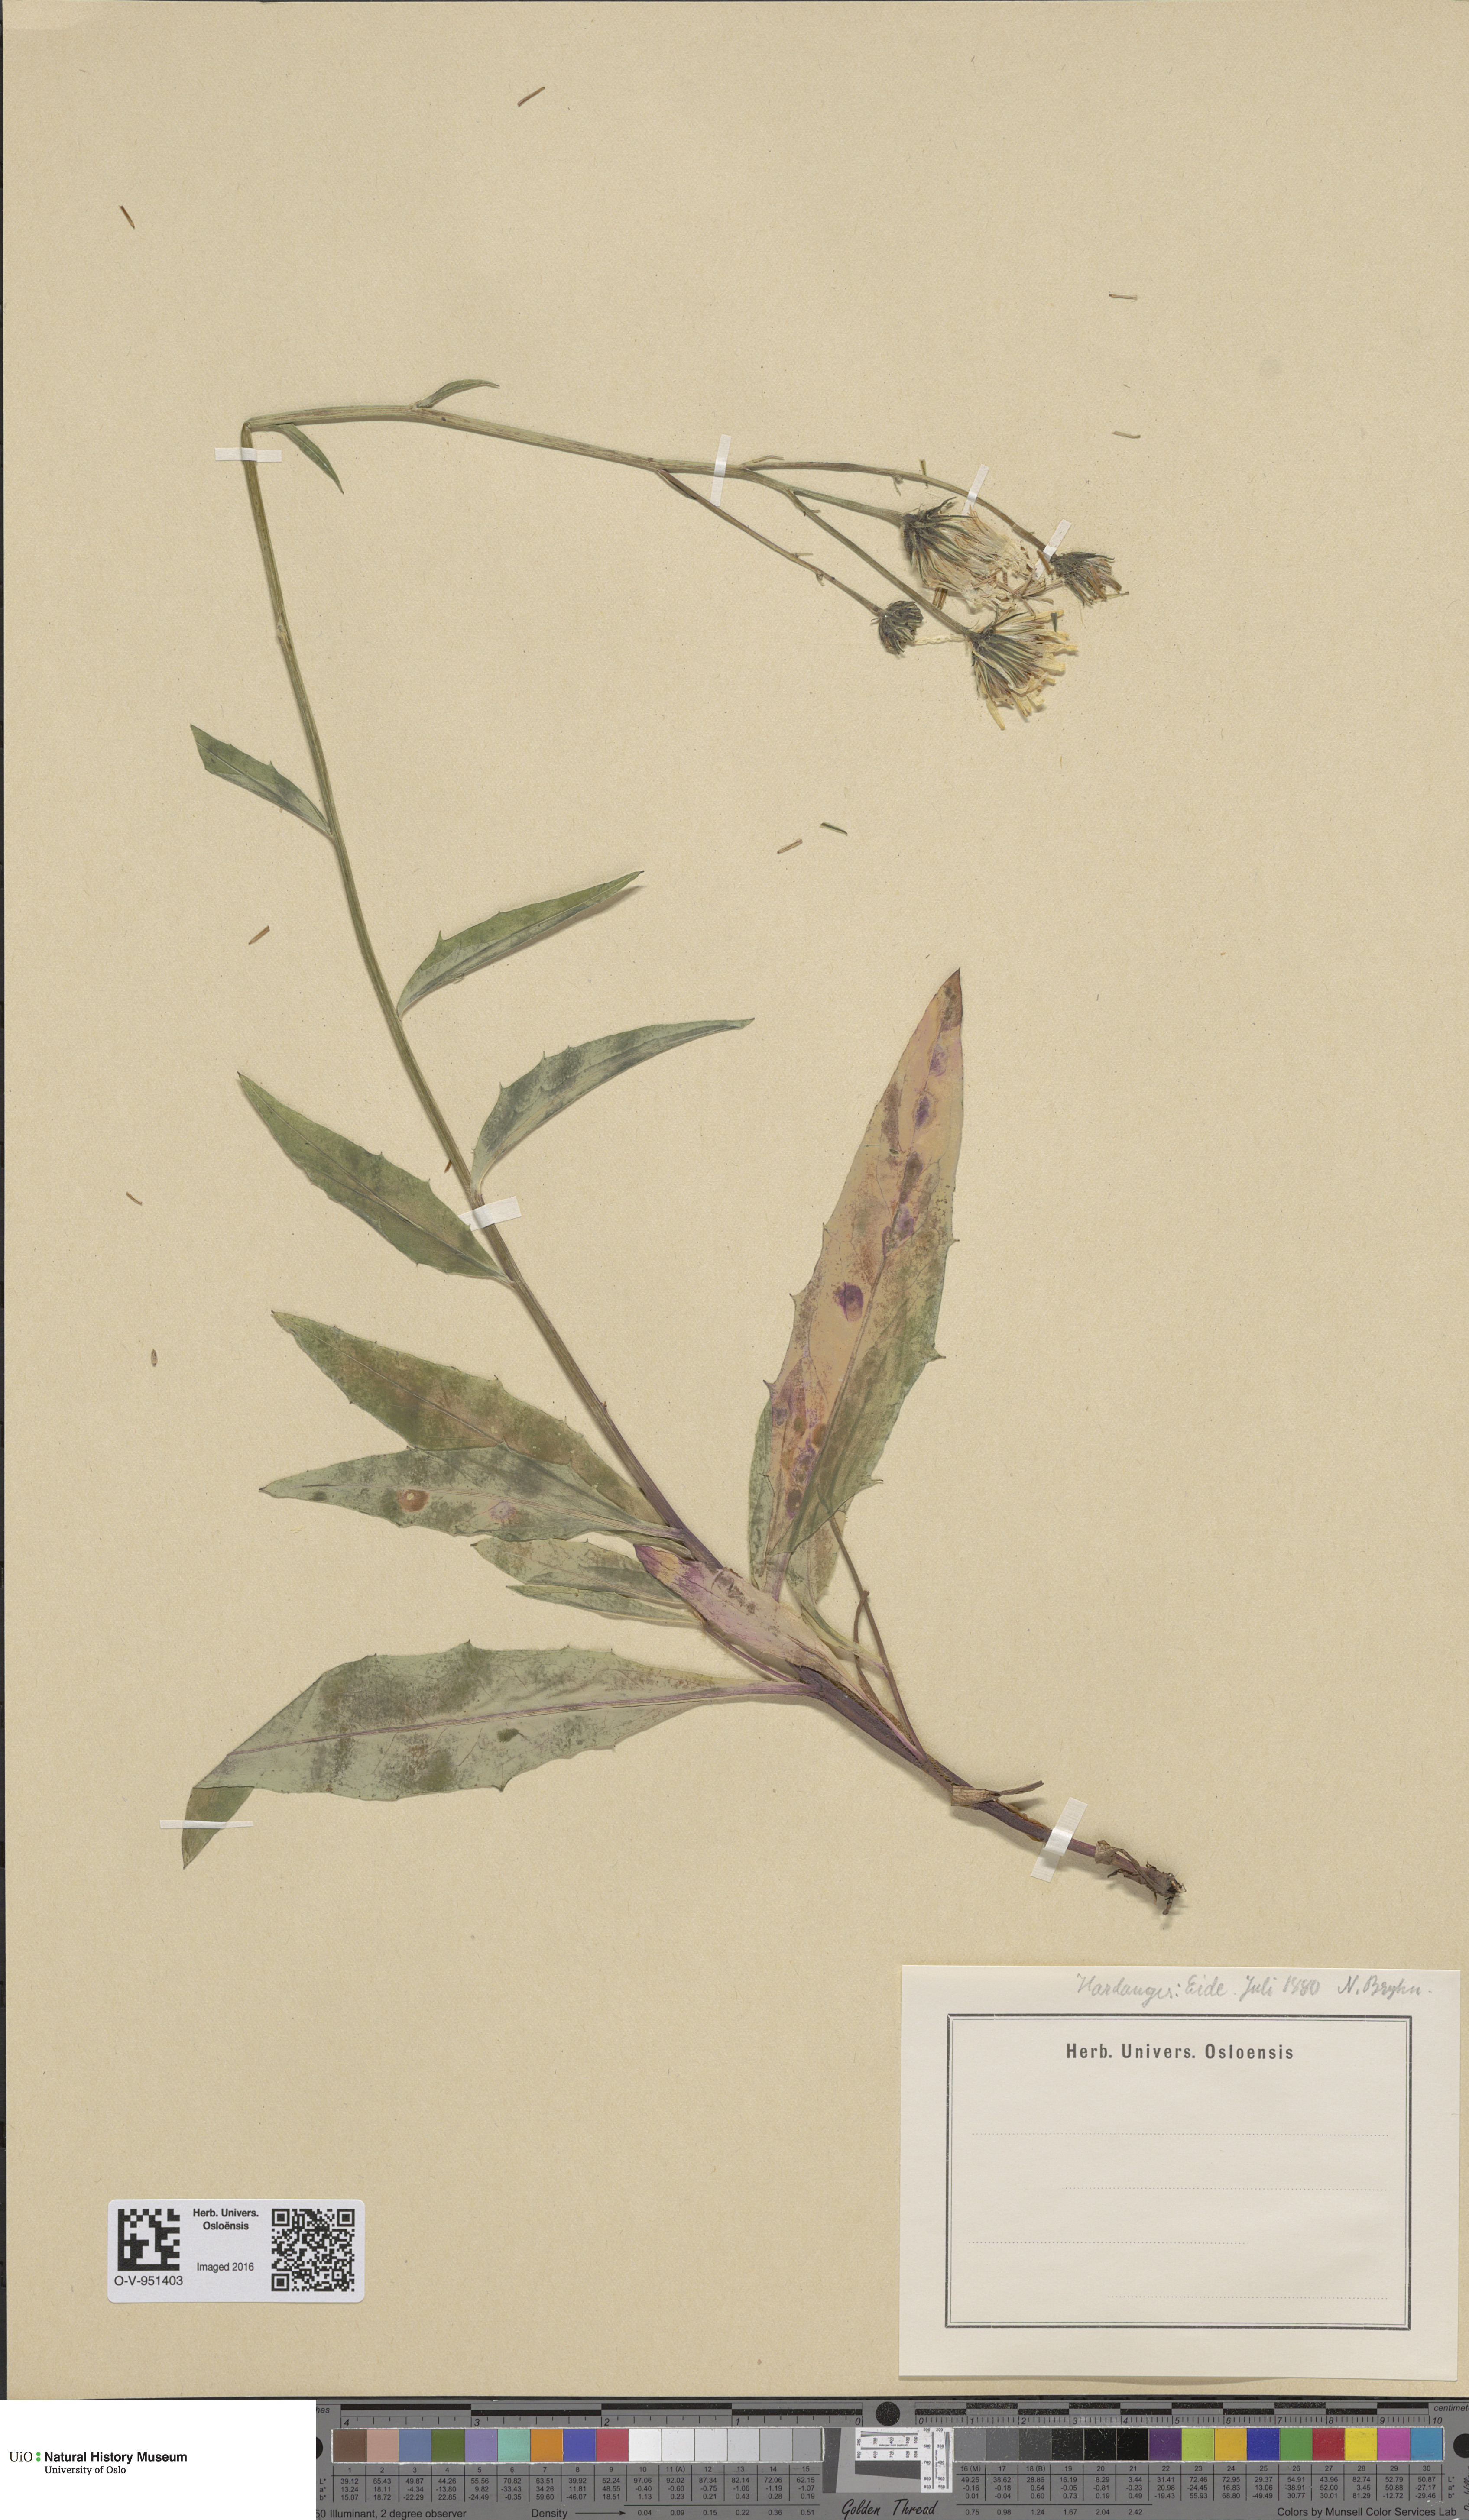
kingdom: Plantae
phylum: Tracheophyta
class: Magnoliopsida
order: Asterales
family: Asteraceae
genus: Hieracium
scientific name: Hieracium
